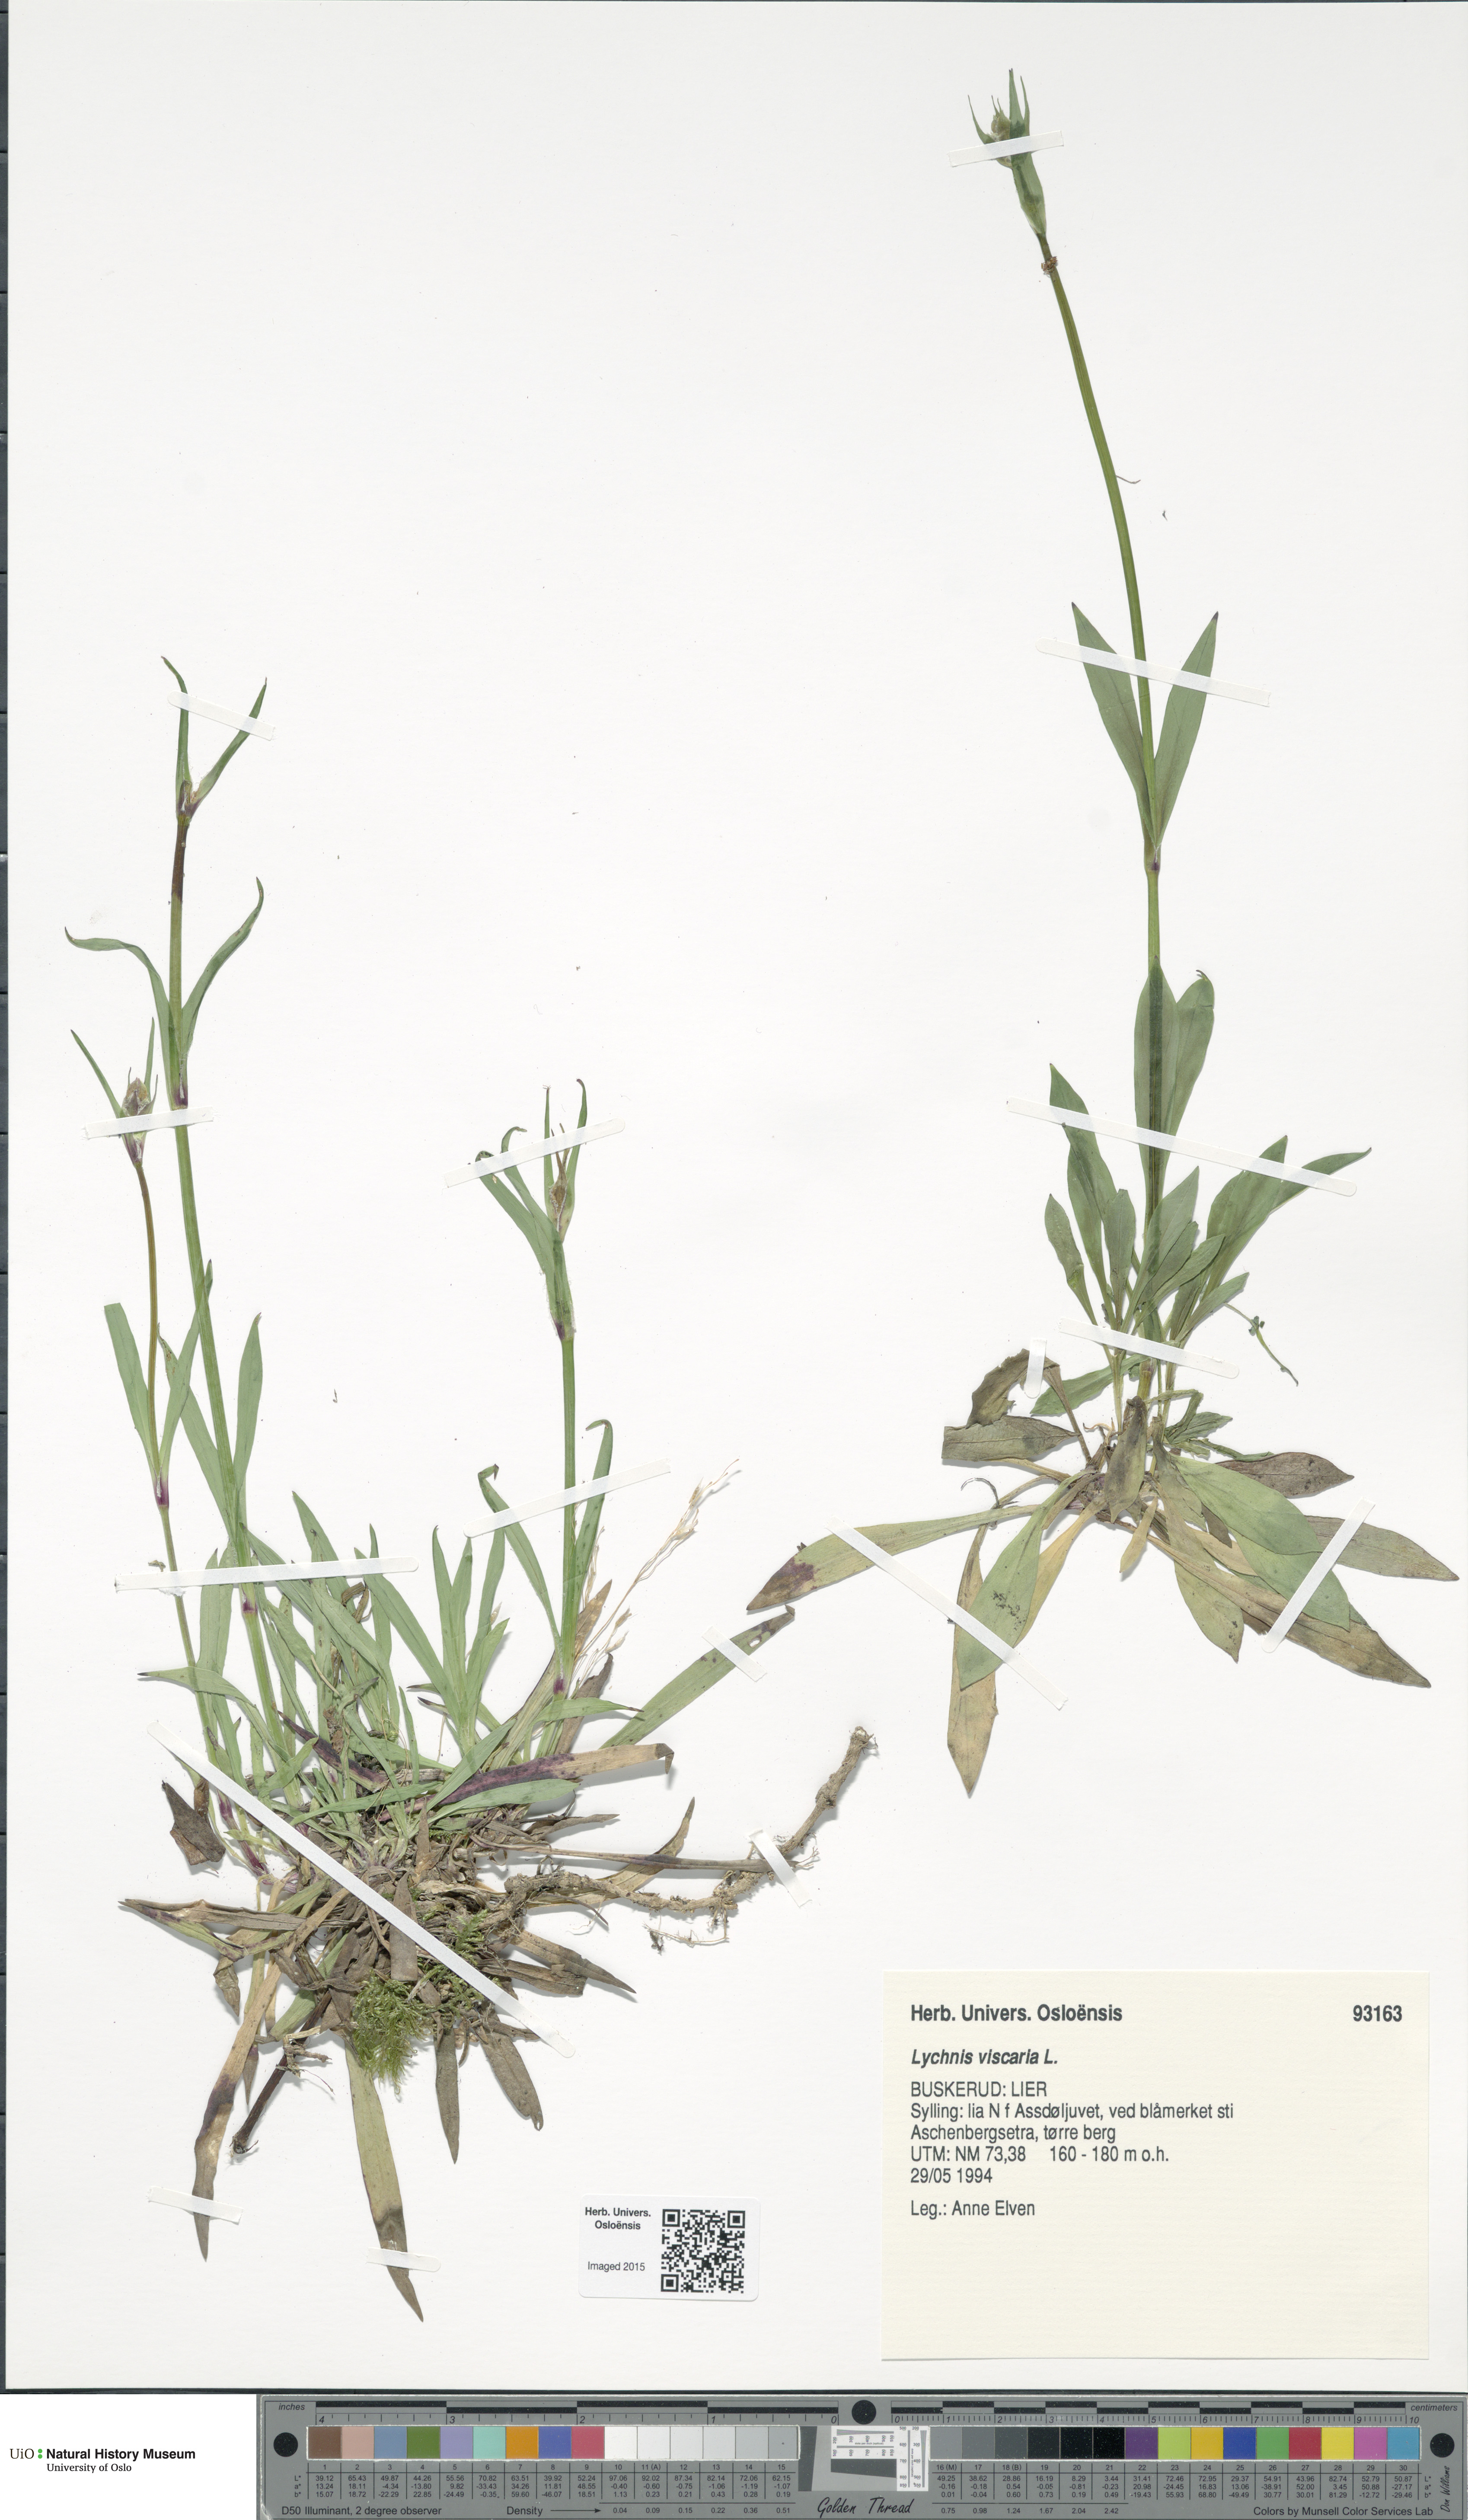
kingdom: Plantae
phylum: Tracheophyta
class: Magnoliopsida
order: Caryophyllales
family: Caryophyllaceae
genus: Viscaria
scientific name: Viscaria vulgaris
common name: Clammy campion
